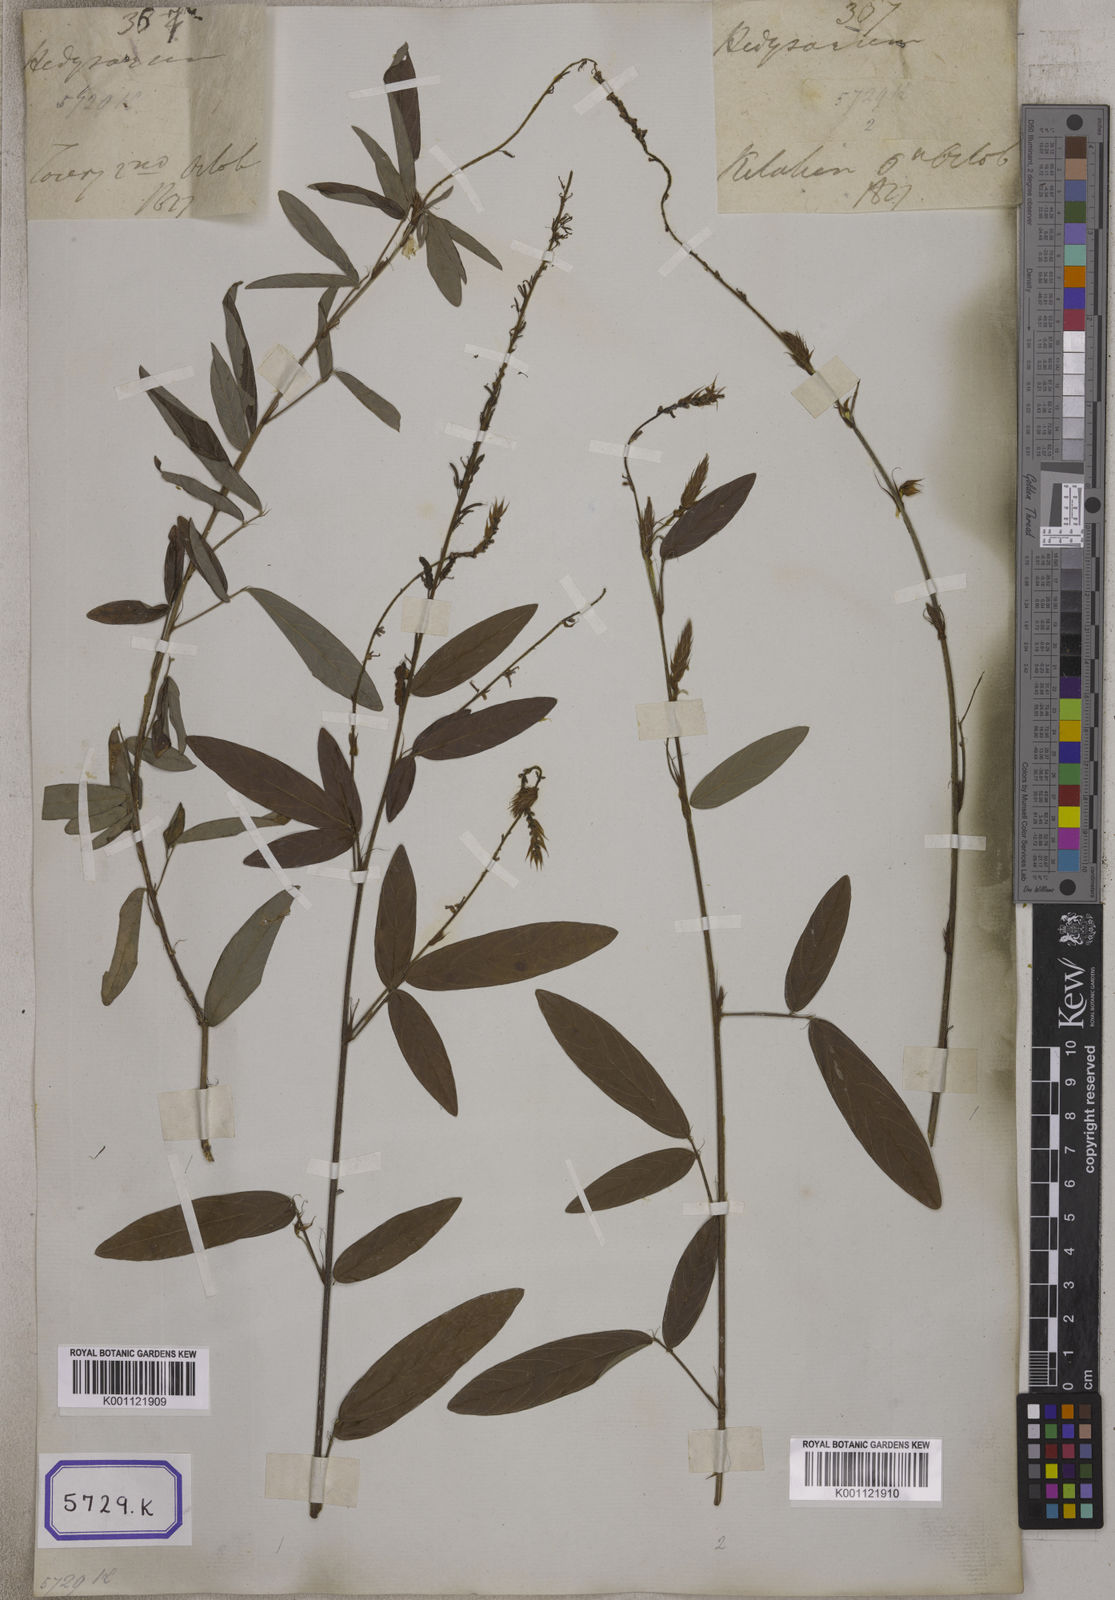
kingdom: Plantae
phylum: Tracheophyta
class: Magnoliopsida
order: Fabales
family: Fabaceae
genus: Desmodium
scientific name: Desmodium
